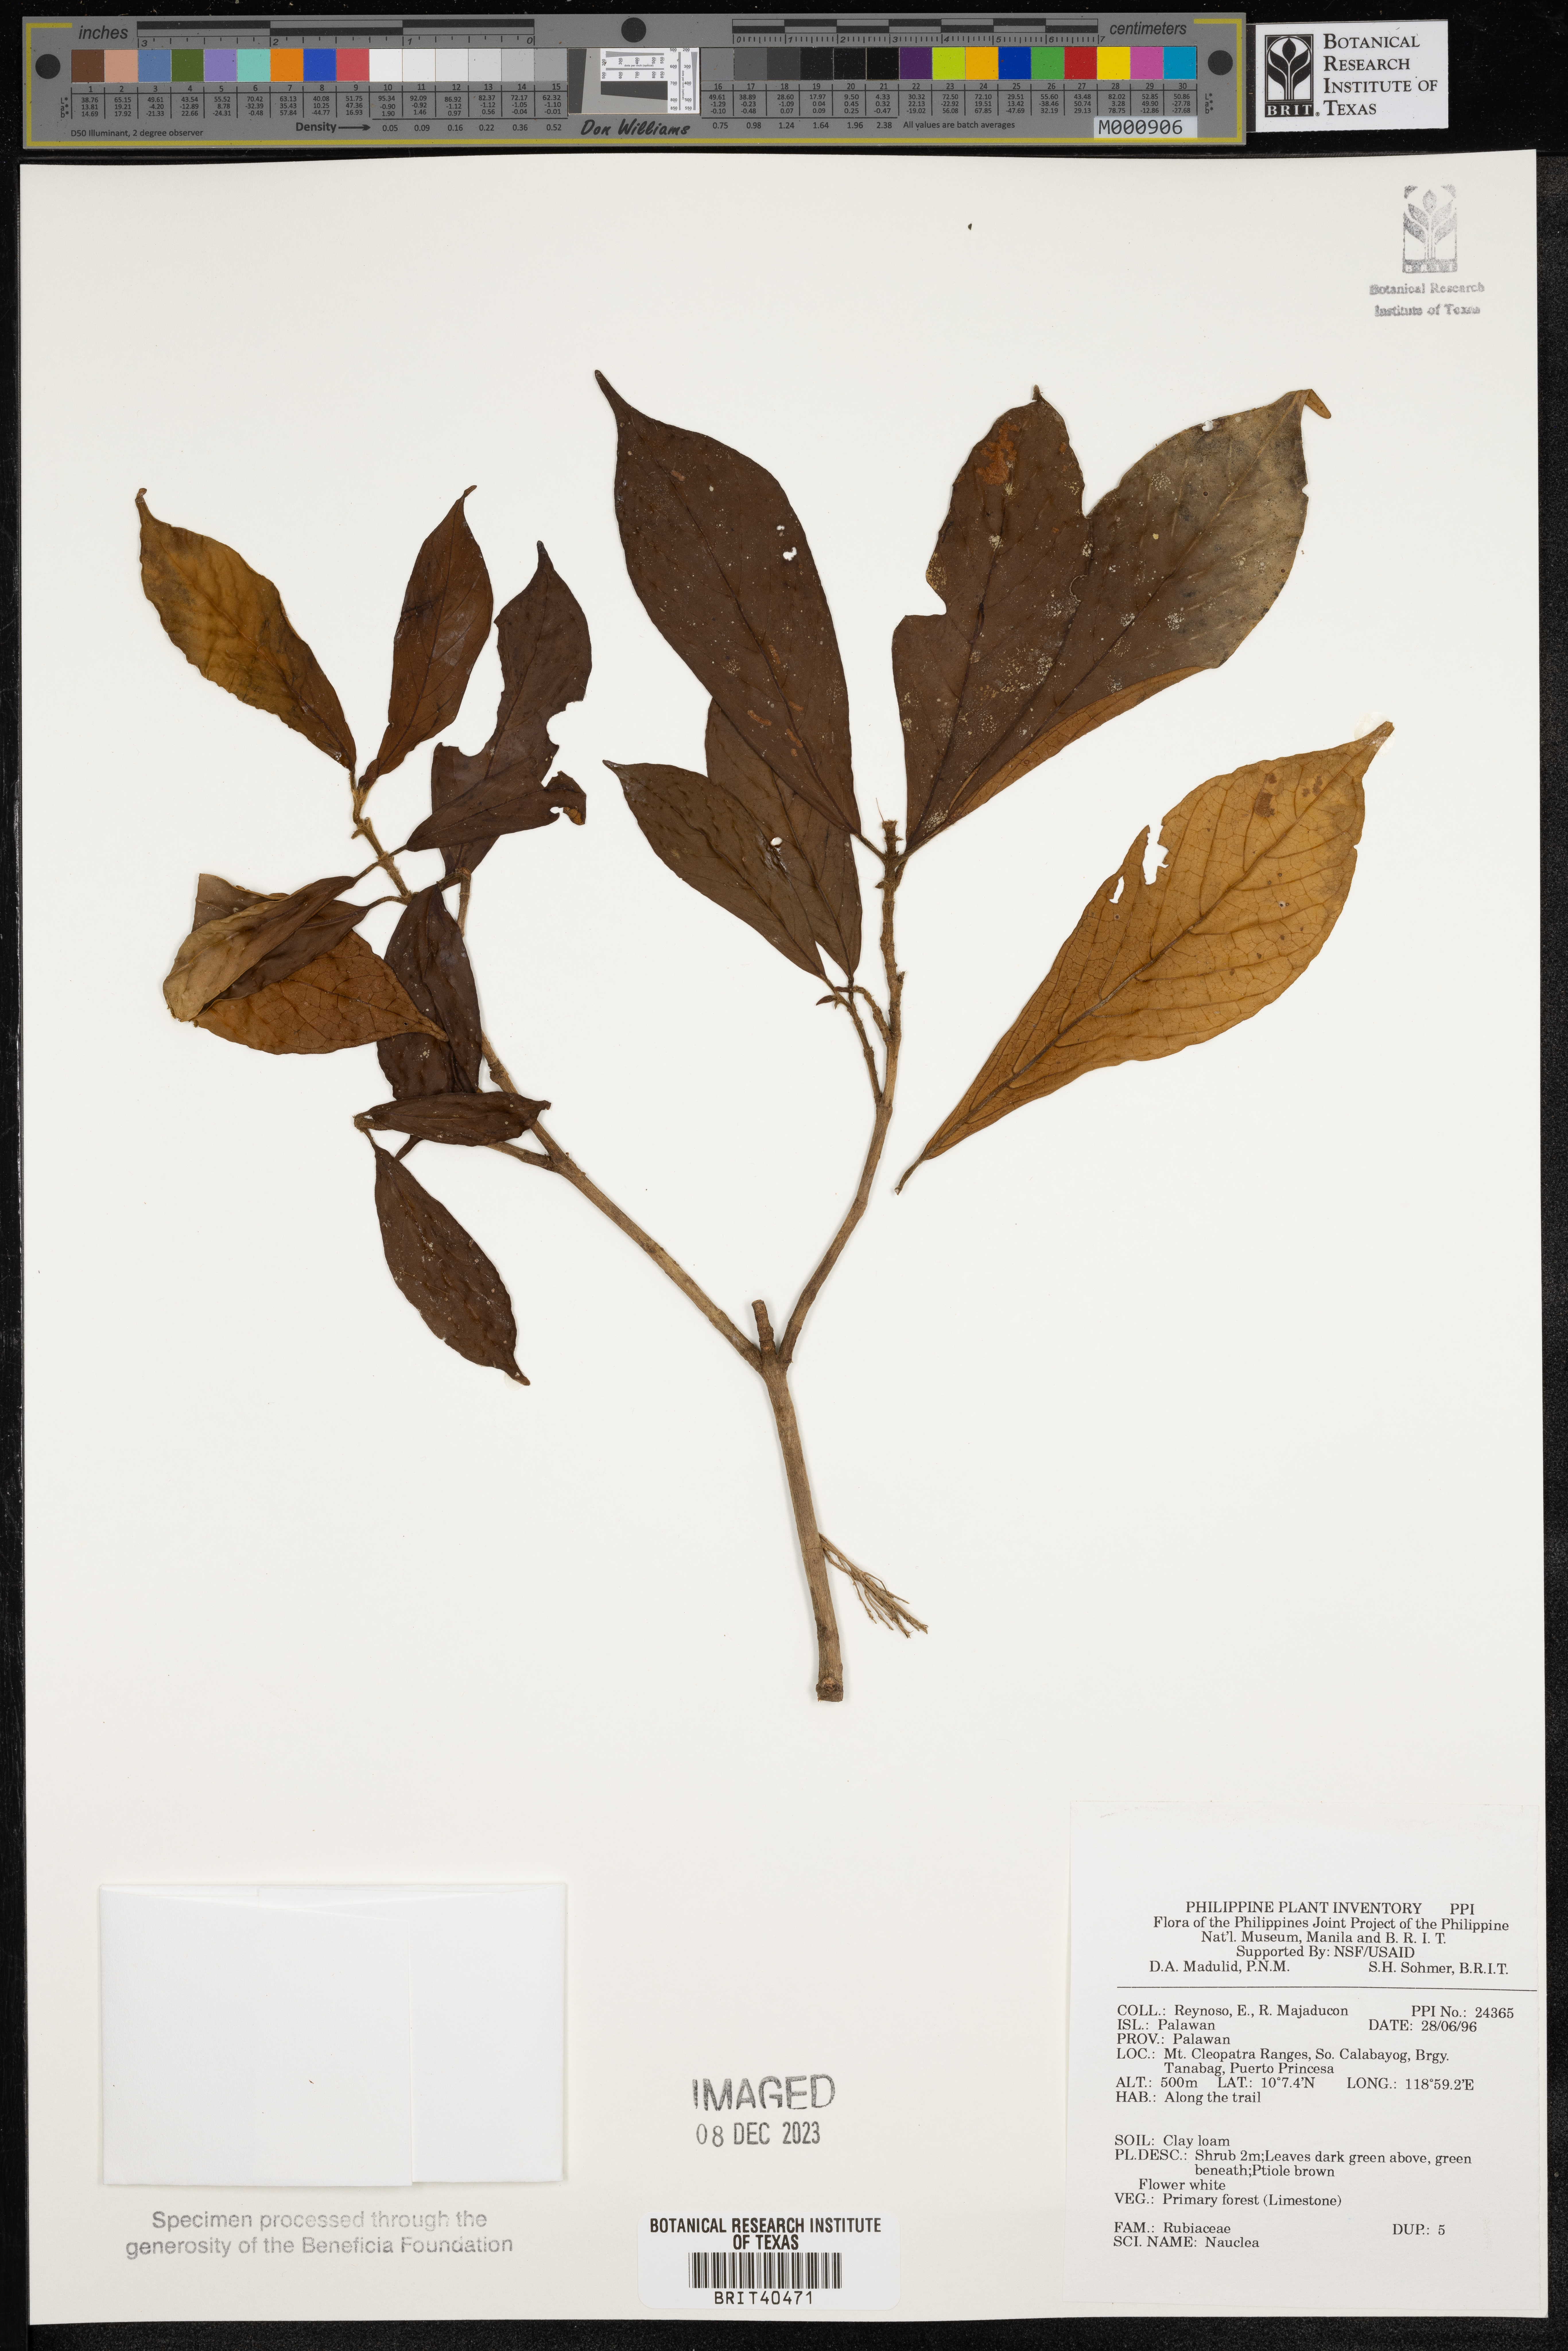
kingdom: Plantae
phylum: Tracheophyta
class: Magnoliopsida
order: Gentianales
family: Rubiaceae
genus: Nauclea
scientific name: Nauclea
